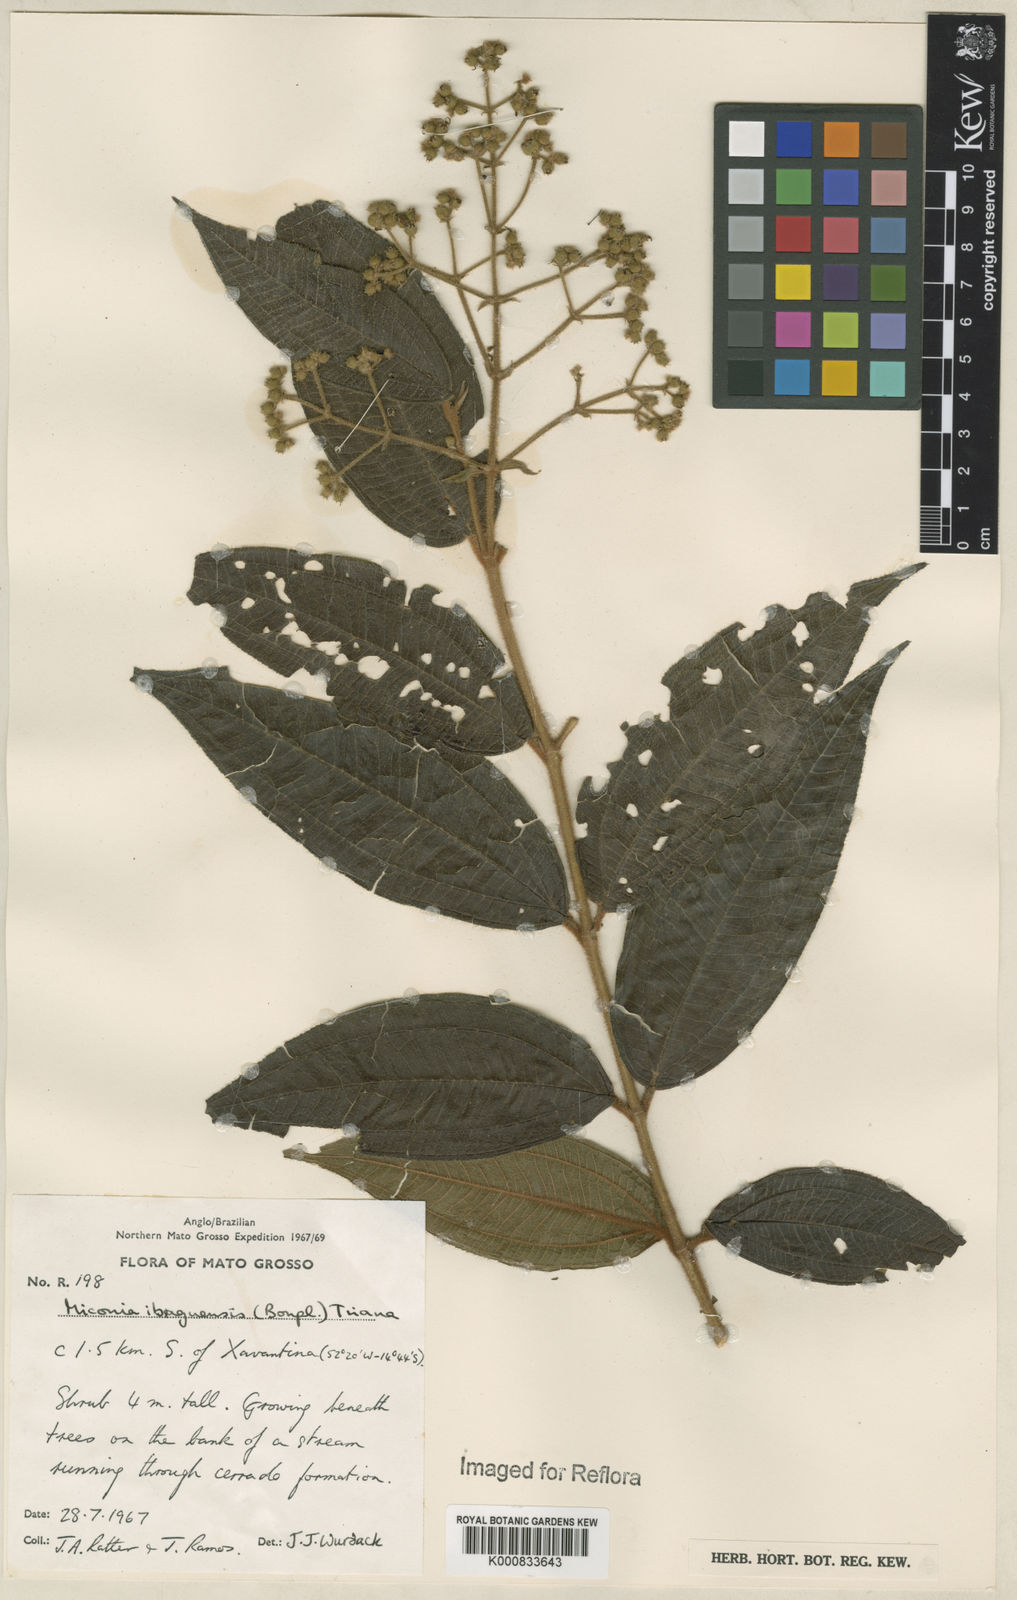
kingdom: Plantae
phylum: Tracheophyta
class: Magnoliopsida
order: Myrtales
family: Melastomataceae
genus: Miconia
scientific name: Miconia ibaguensis
